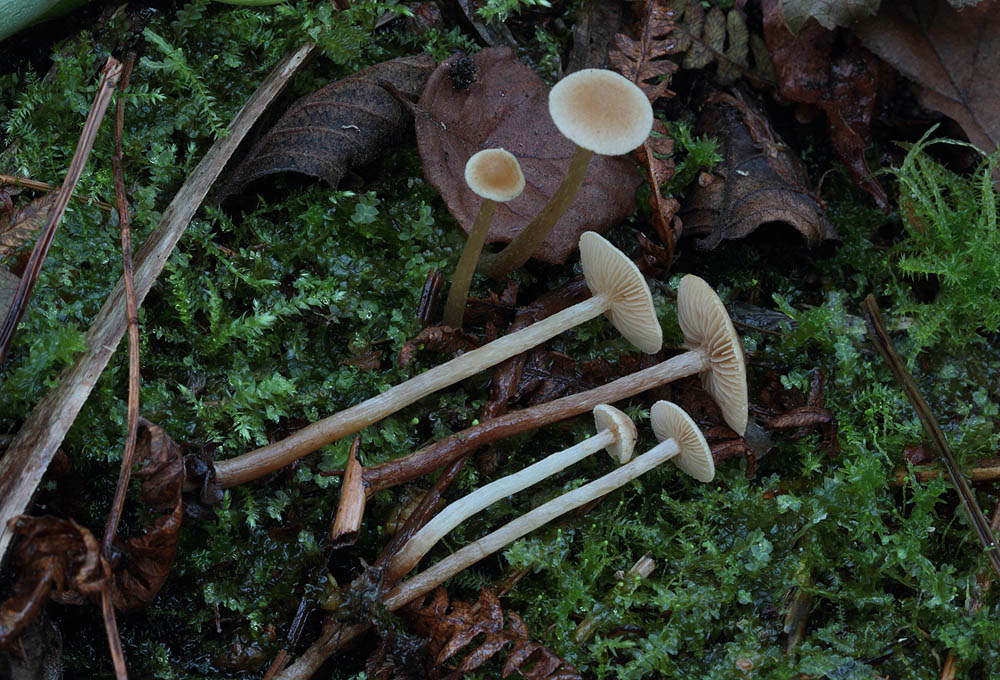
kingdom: Fungi
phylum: Basidiomycota
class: Agaricomycetes
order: Agaricales
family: Strophariaceae
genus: Hypholoma
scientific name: Hypholoma elongatum
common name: slank svovlhat
